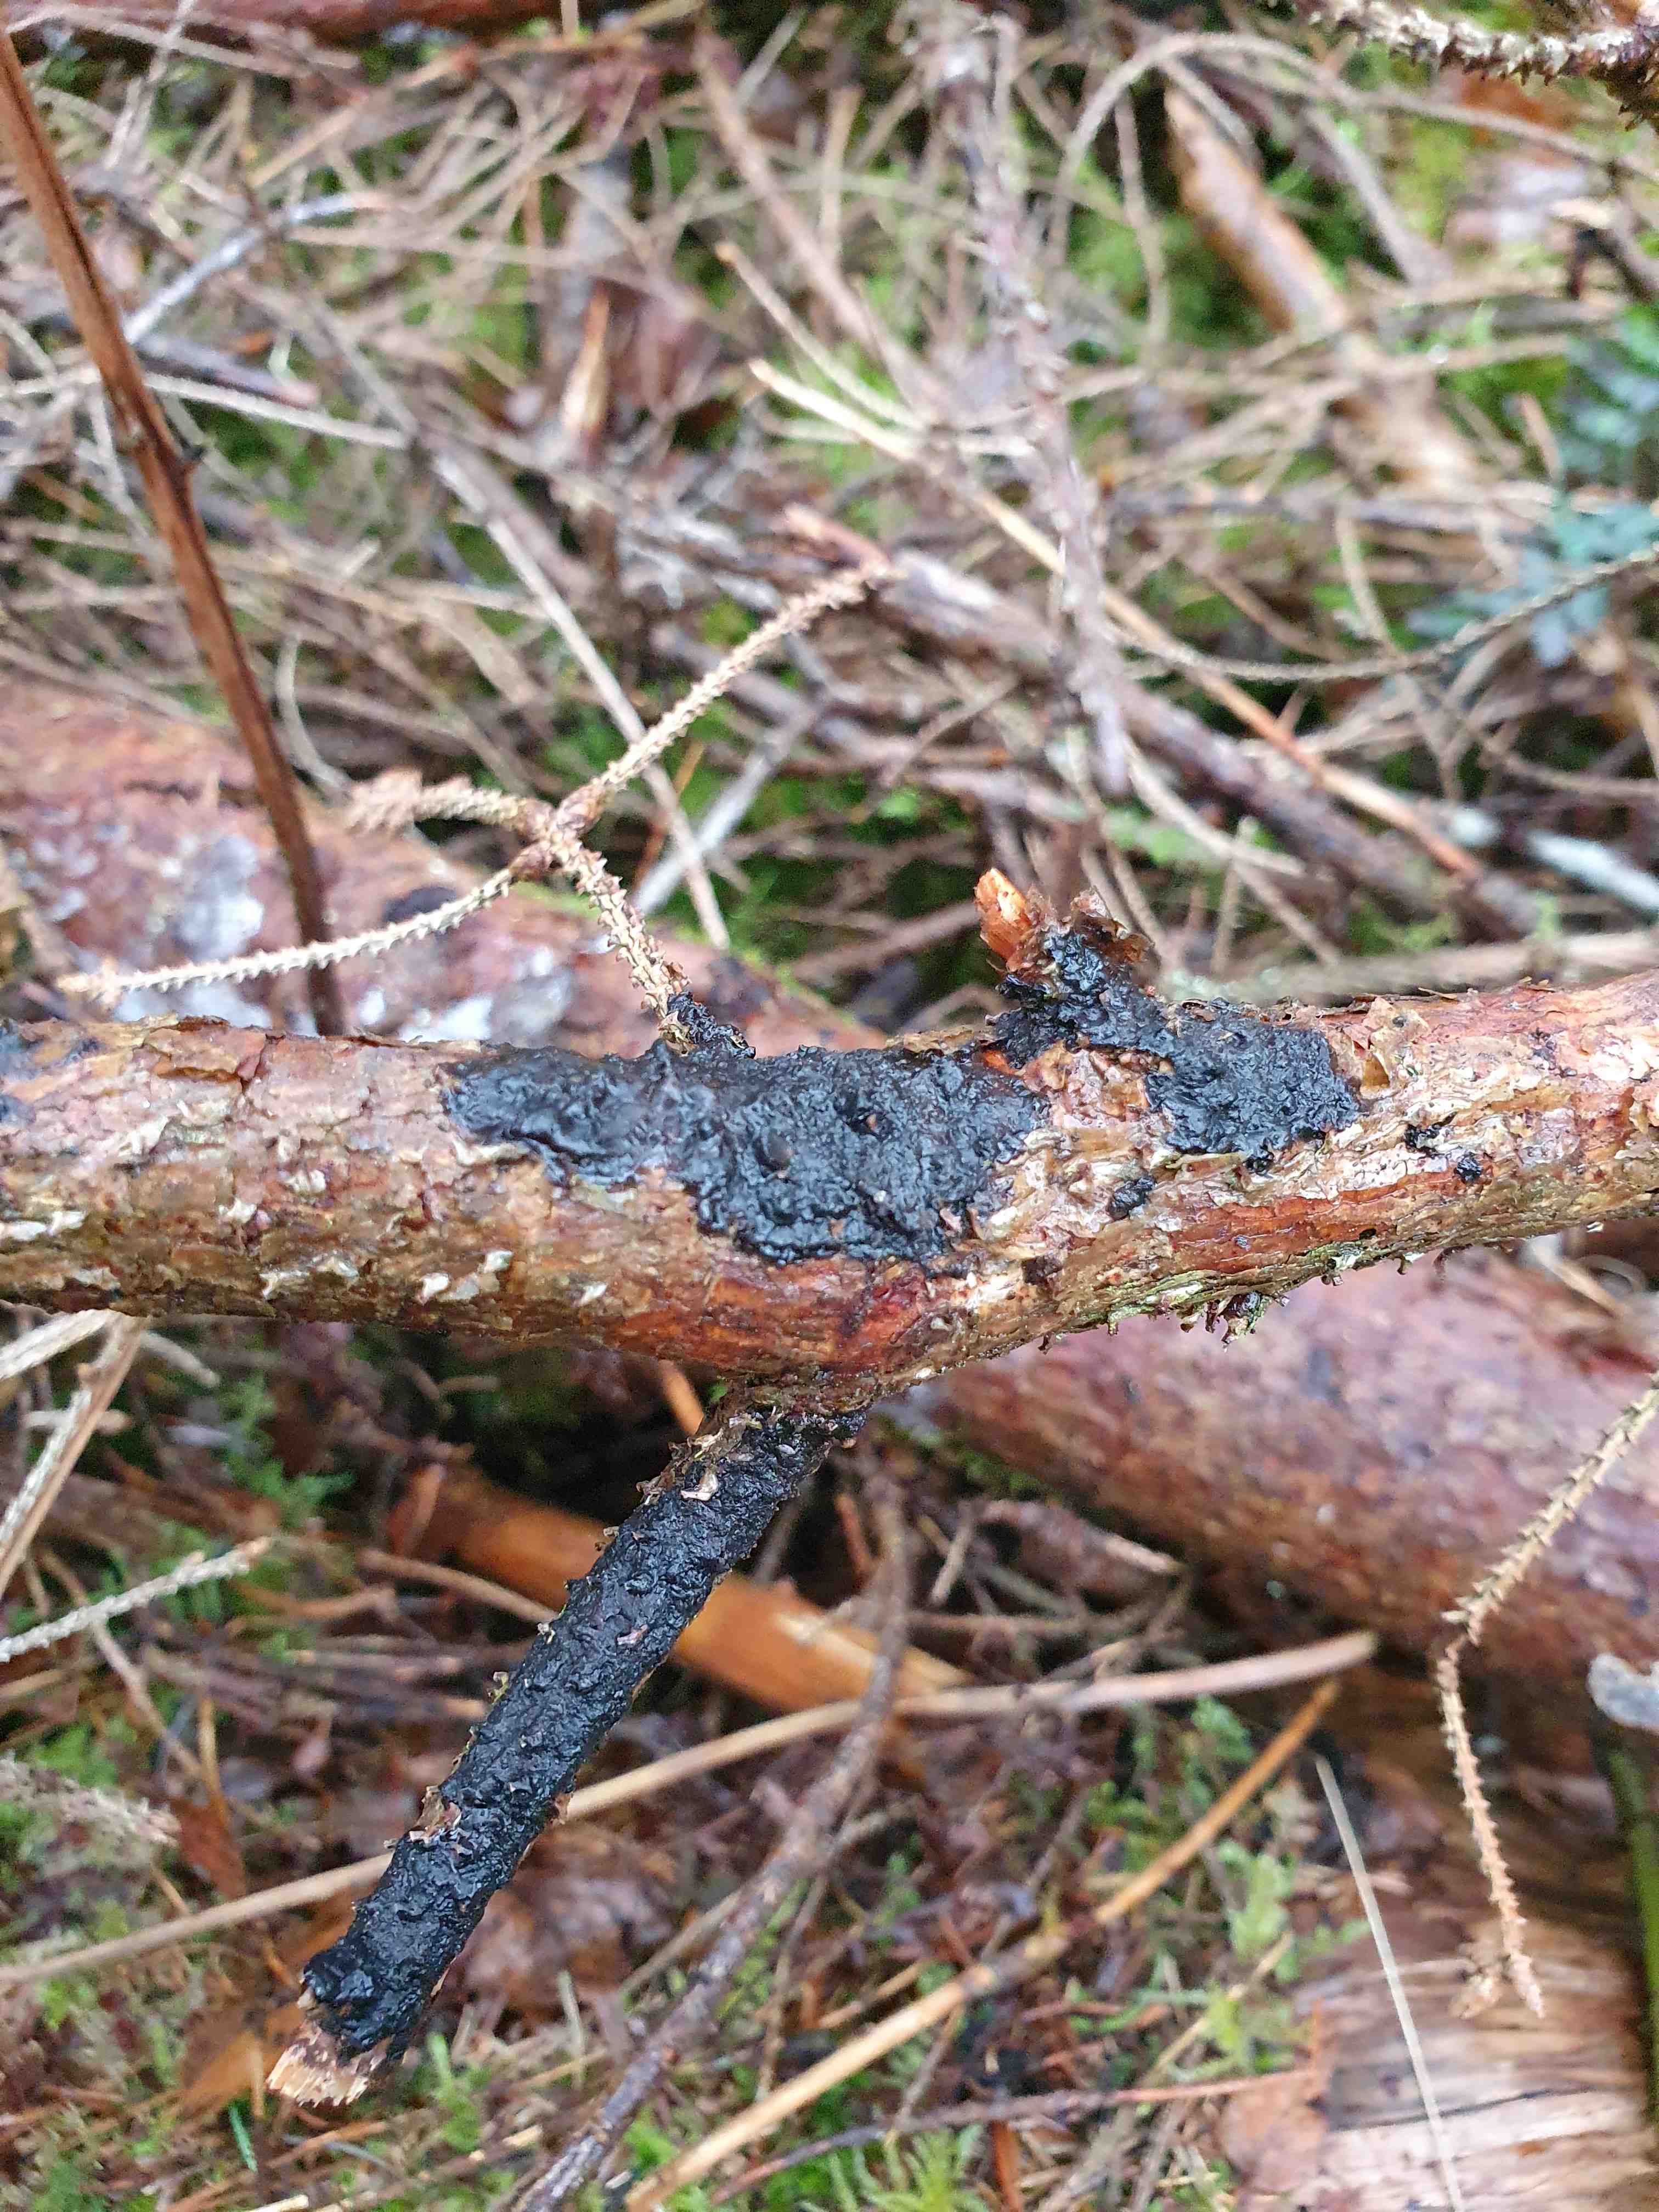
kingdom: Fungi
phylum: Basidiomycota
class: Agaricomycetes
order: Auriculariales
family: Auriculariaceae
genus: Exidia
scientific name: Exidia pithya
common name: gran-bævretop
